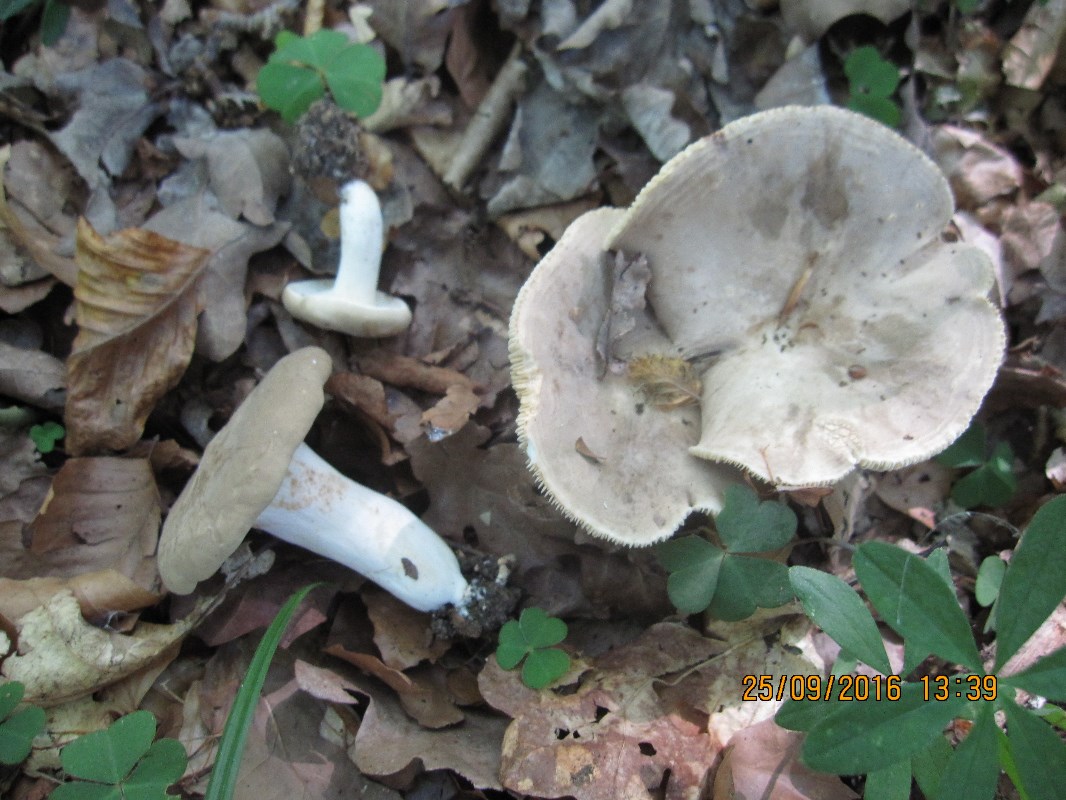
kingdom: Fungi
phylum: Basidiomycota
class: Agaricomycetes
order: Russulales
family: Russulaceae
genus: Lactarius
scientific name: Lactarius azonites
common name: røggrå mælkehat
